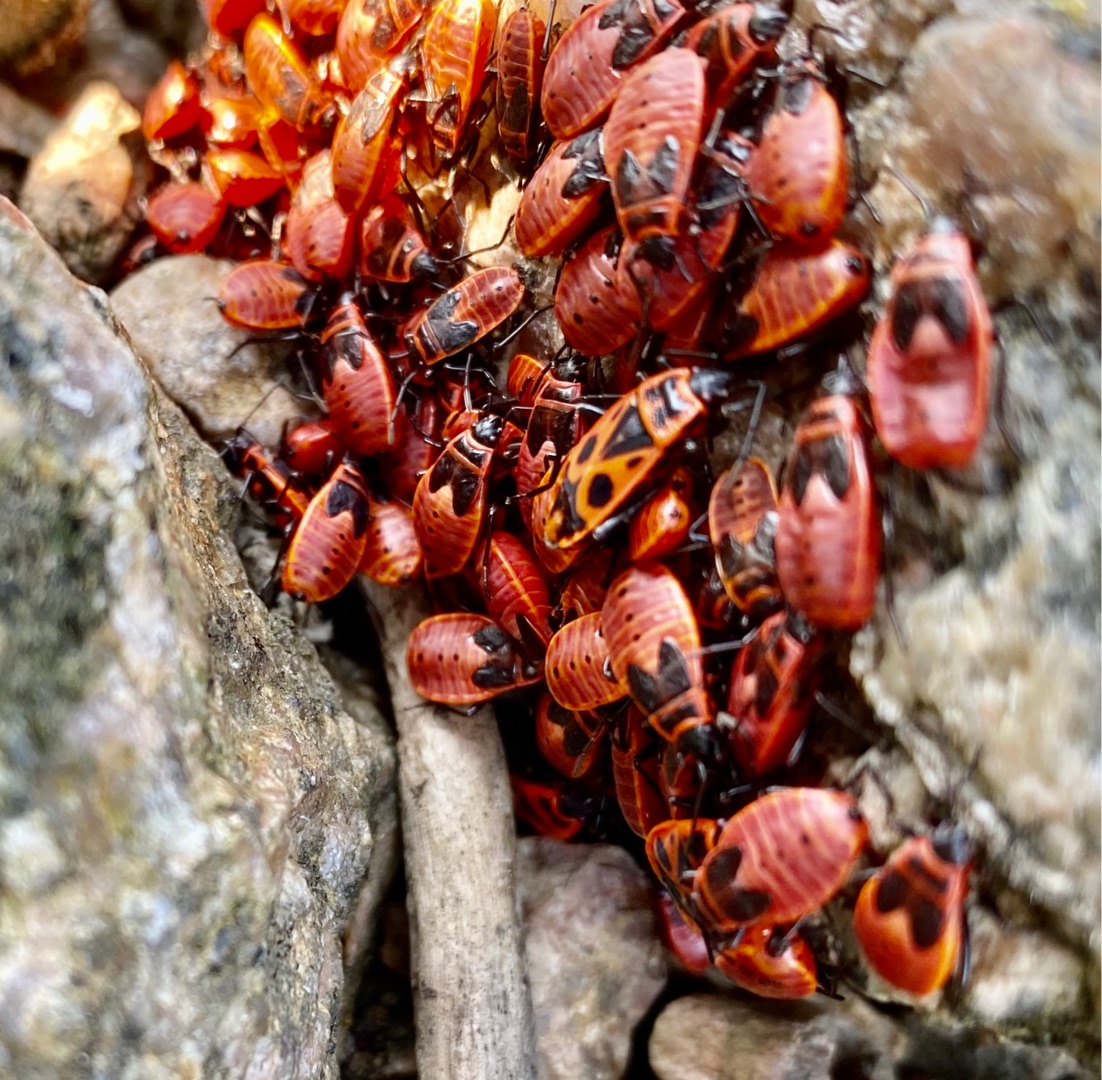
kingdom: Animalia
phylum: Arthropoda
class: Insecta
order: Hemiptera
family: Pyrrhocoridae
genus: Pyrrhocoris
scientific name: Pyrrhocoris apterus
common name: Ildtæge
